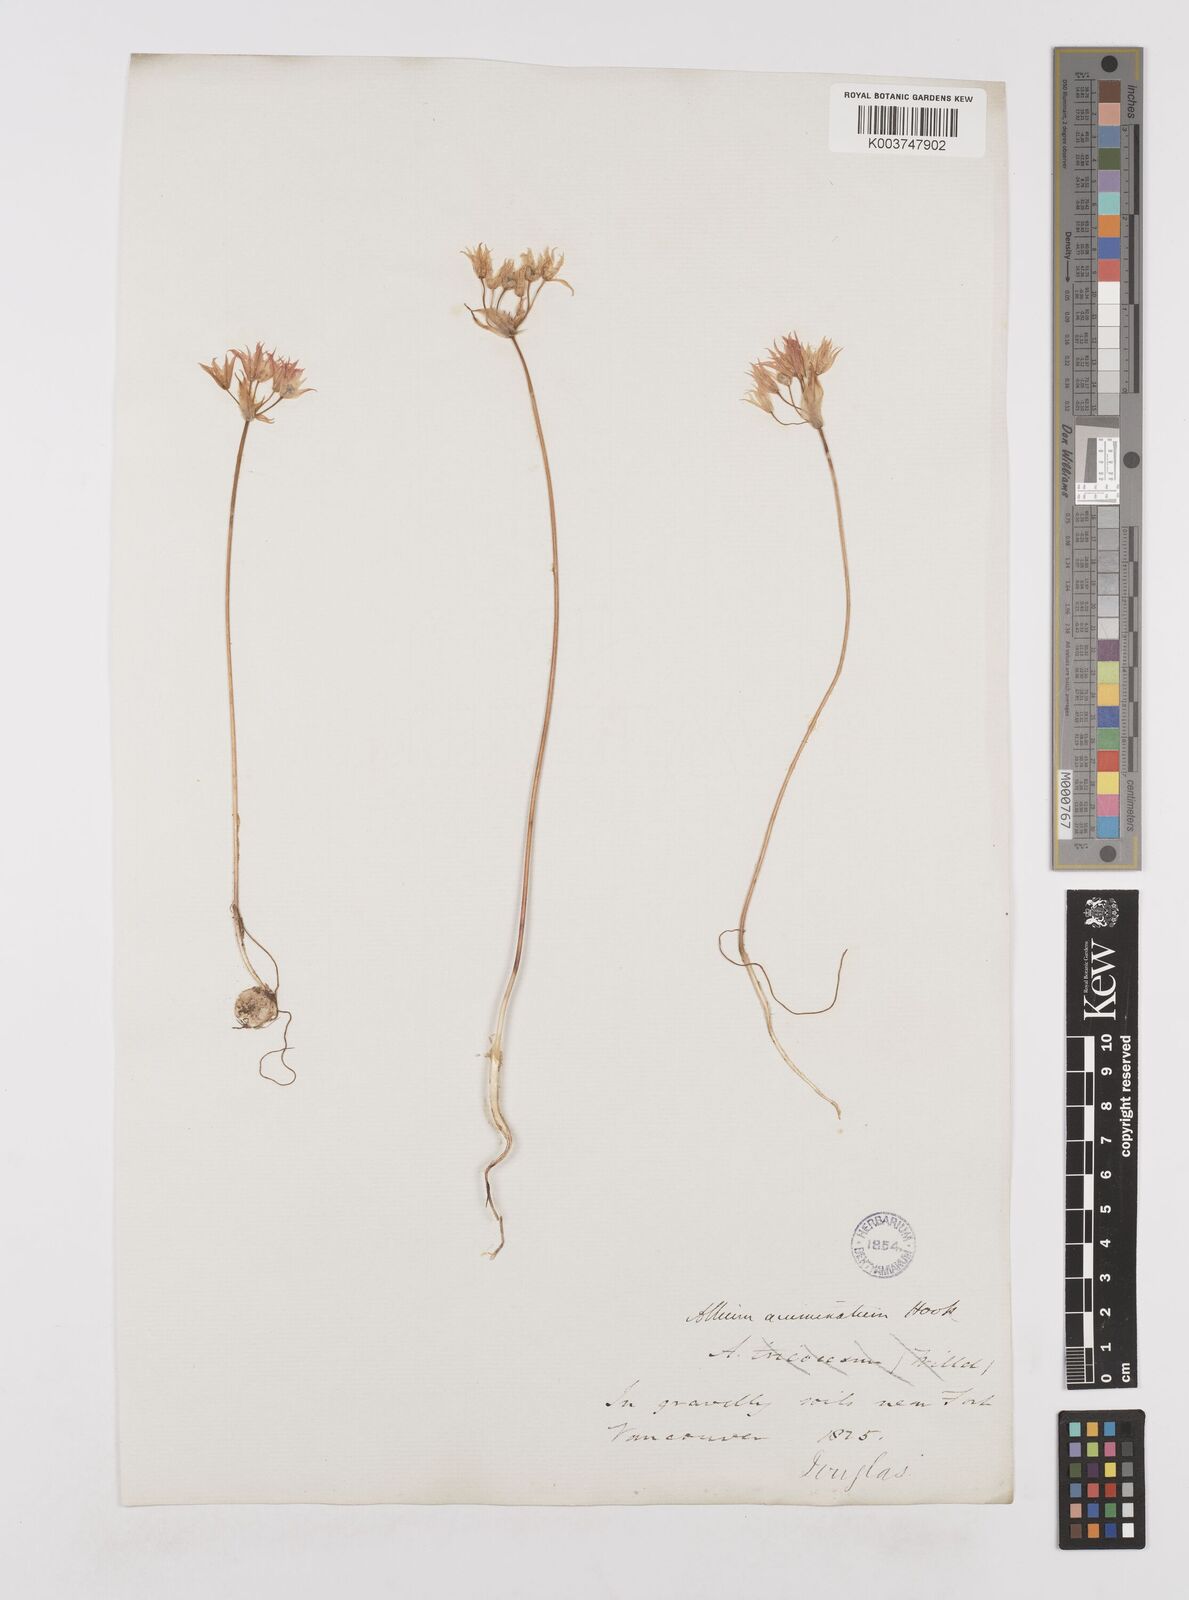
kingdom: Plantae
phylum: Tracheophyta
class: Liliopsida
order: Asparagales
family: Amaryllidaceae
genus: Allium
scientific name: Allium acuminatum
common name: Hooker's onion
